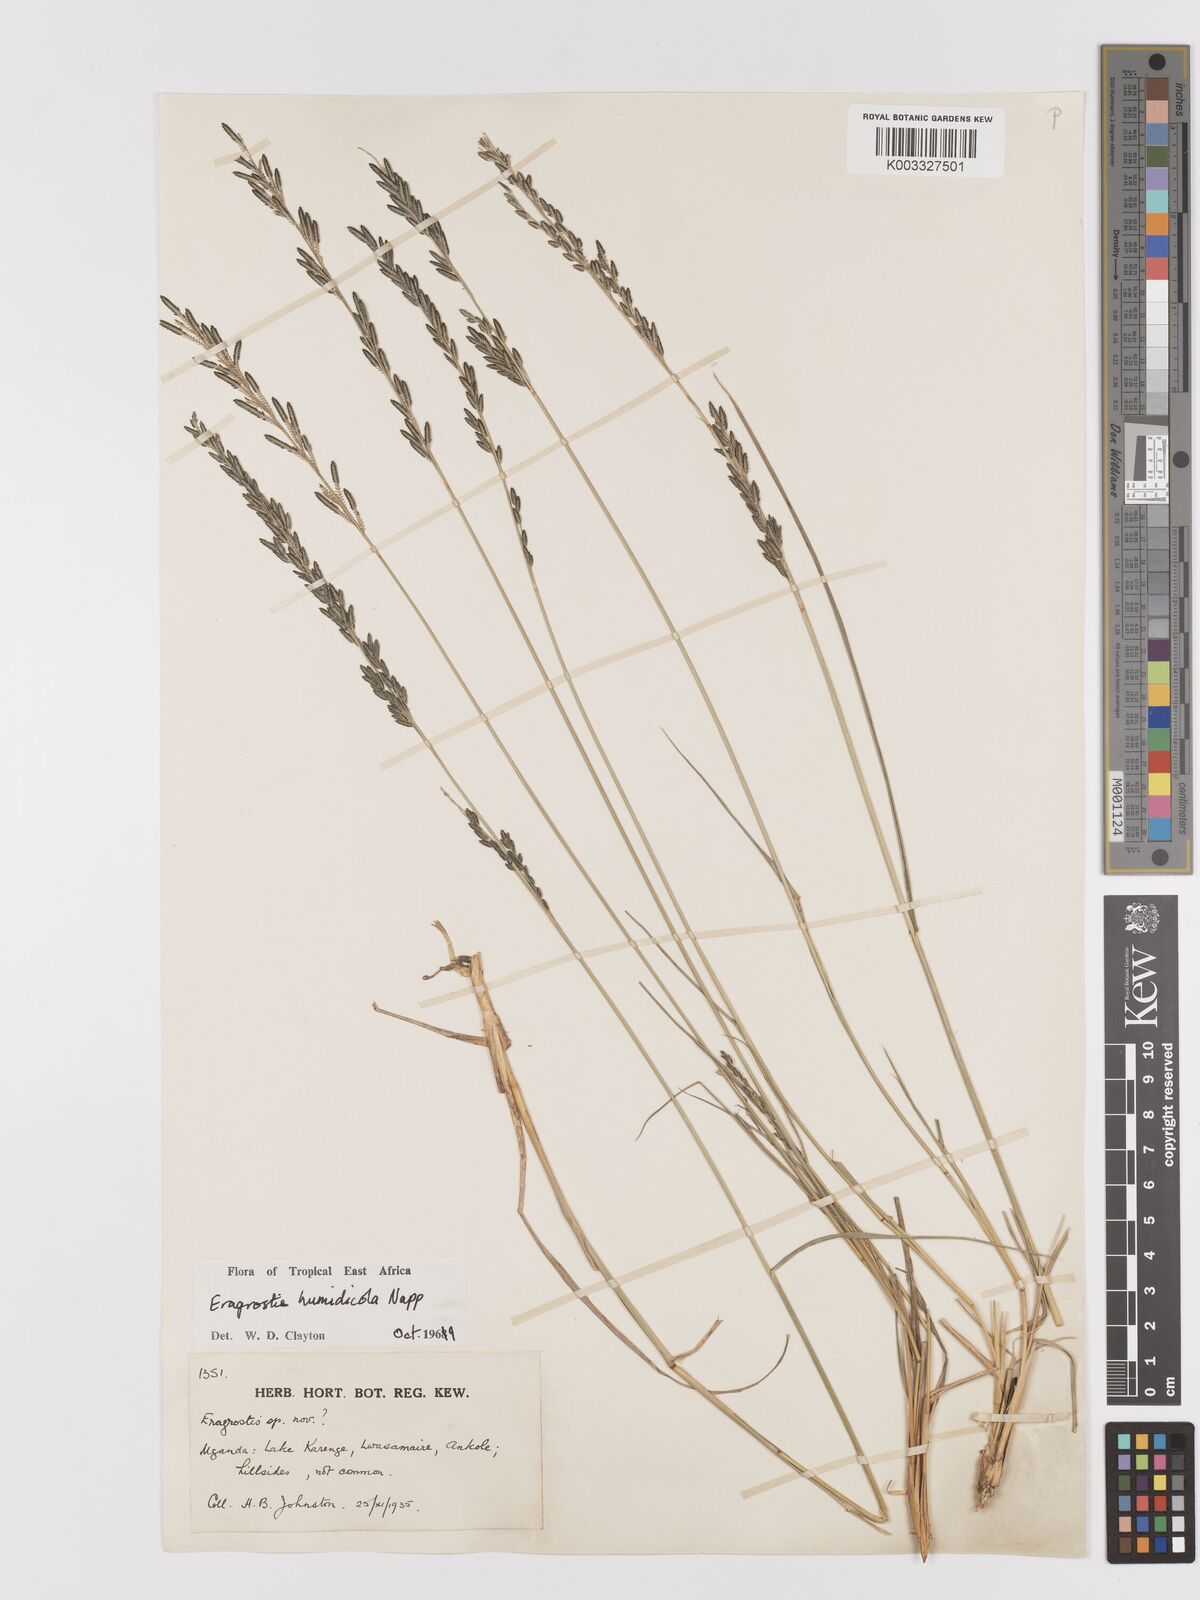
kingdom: Plantae
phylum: Tracheophyta
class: Liliopsida
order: Poales
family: Poaceae
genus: Eragrostis
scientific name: Eragrostis humidicola
